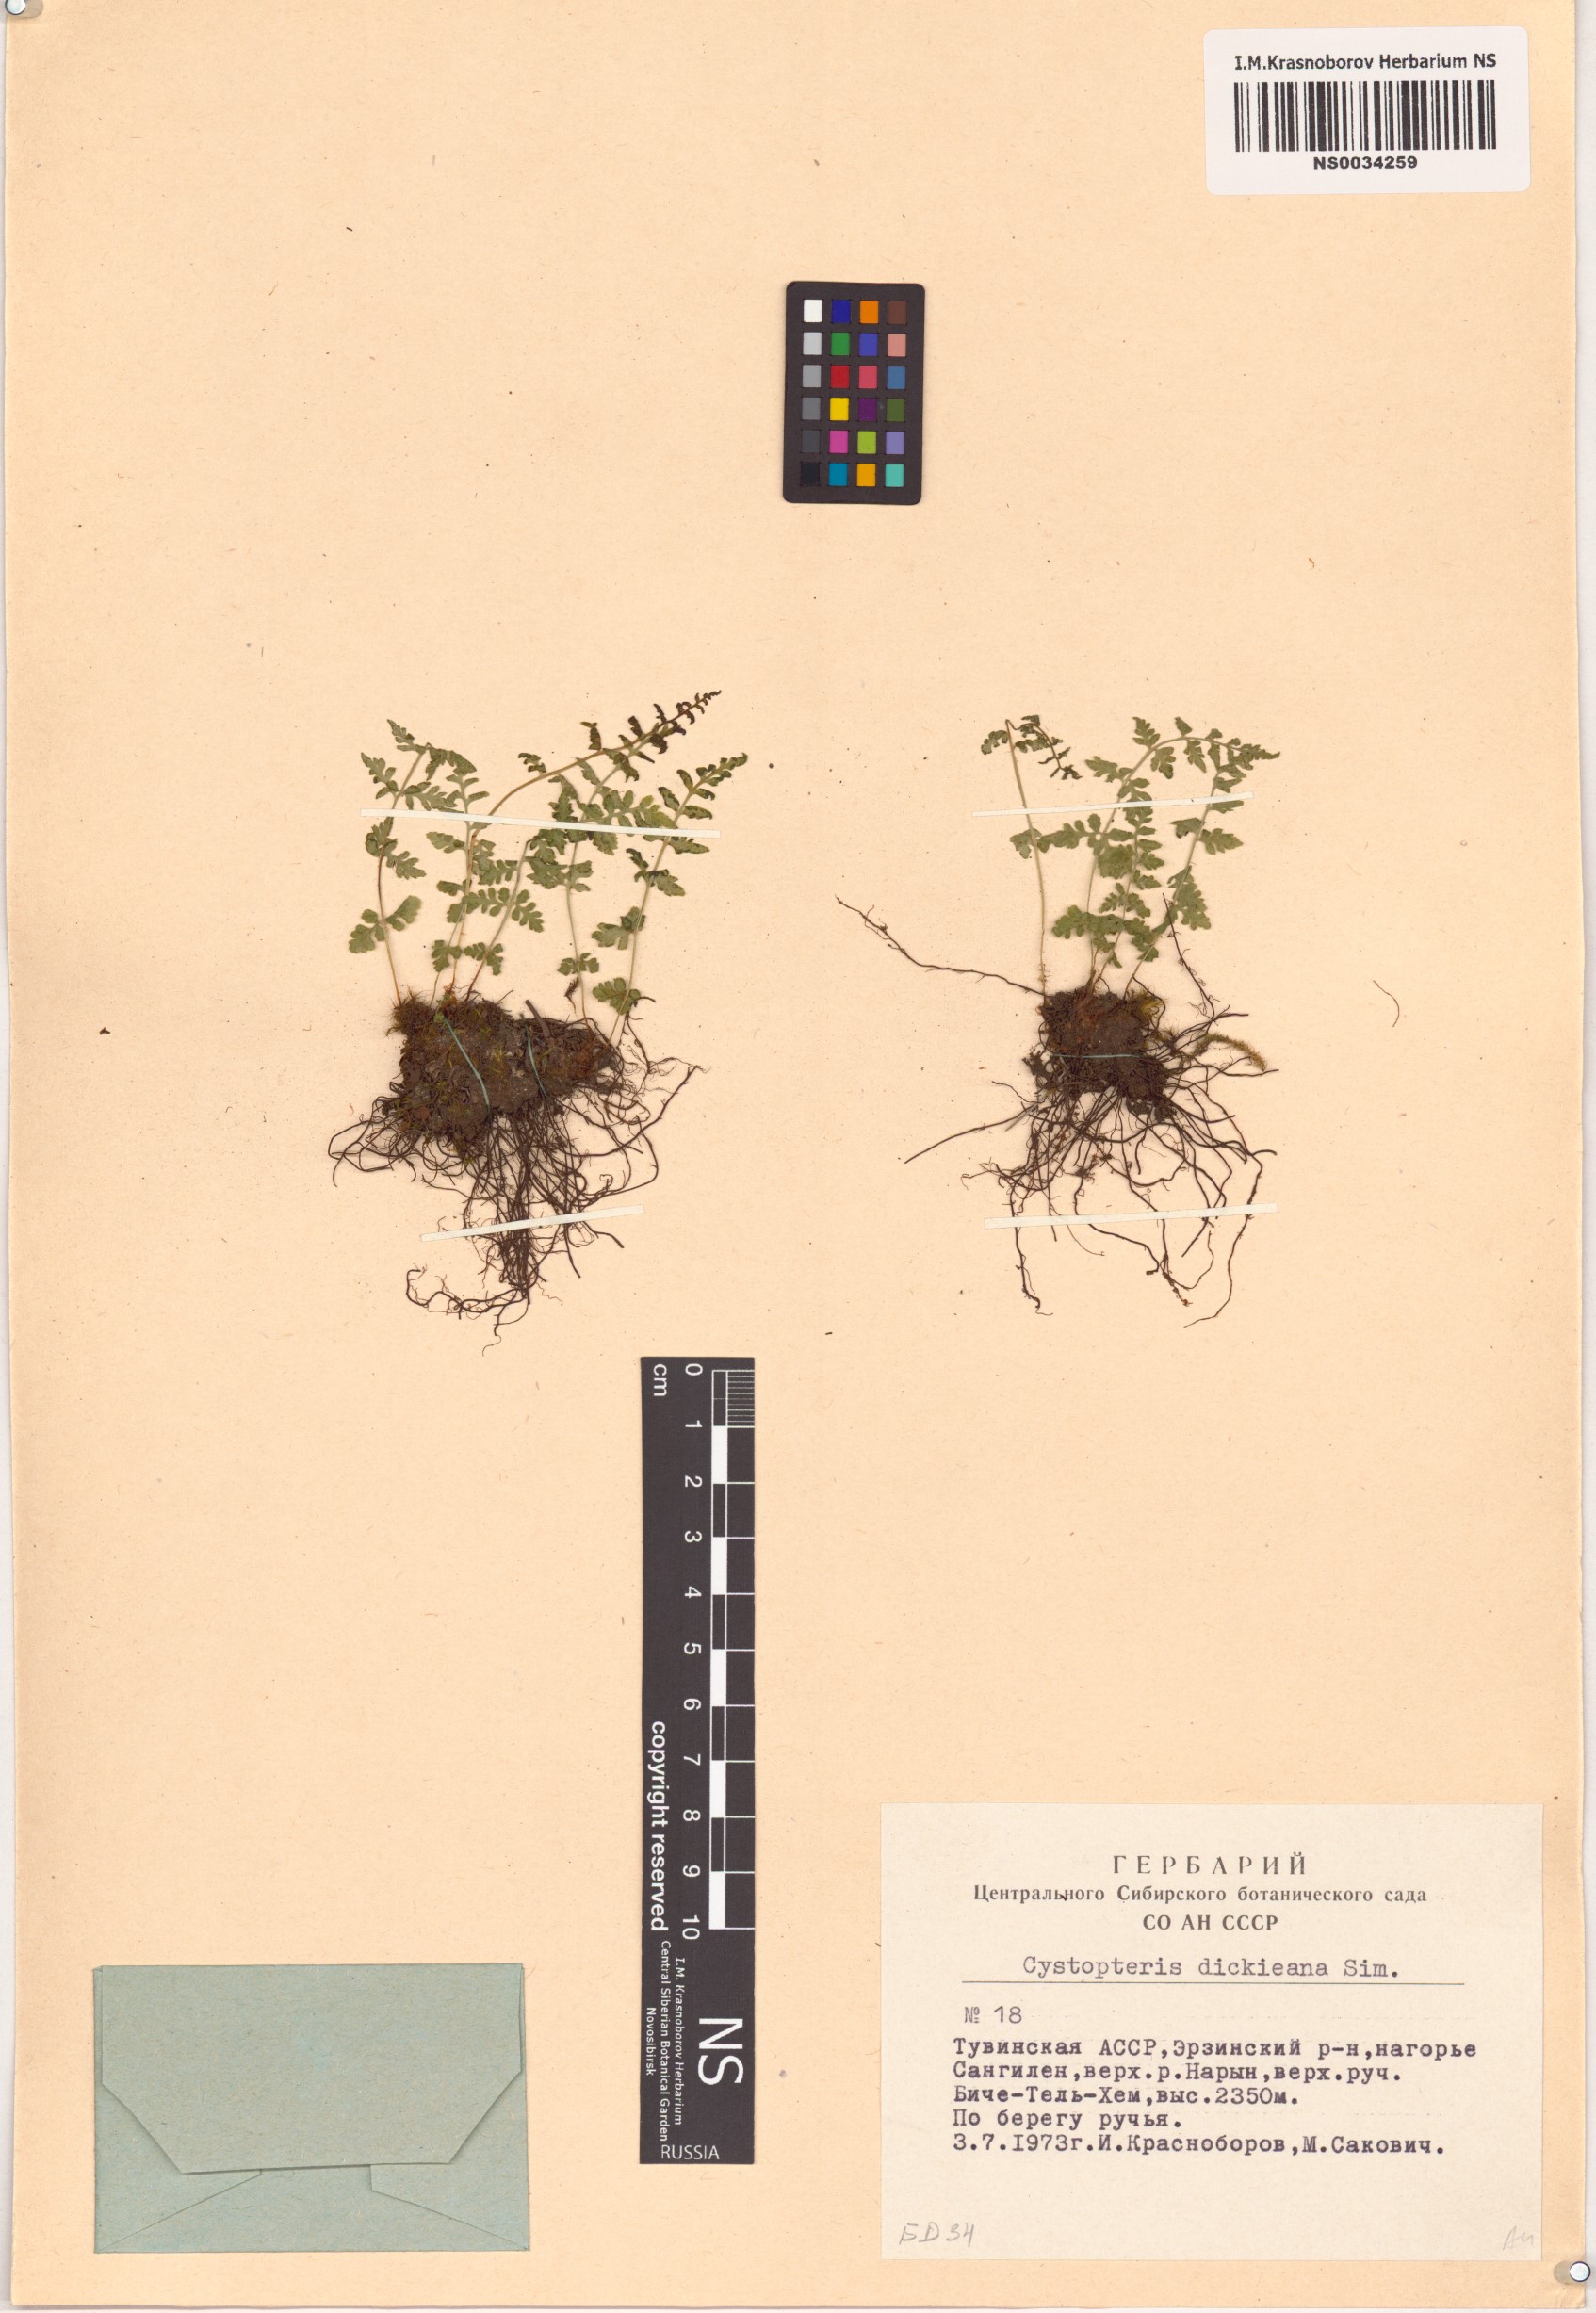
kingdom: Plantae
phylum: Tracheophyta
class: Polypodiopsida
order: Polypodiales
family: Cystopteridaceae
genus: Cystopteris
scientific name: Cystopteris dickieana
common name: Dickie's bladder-fern
